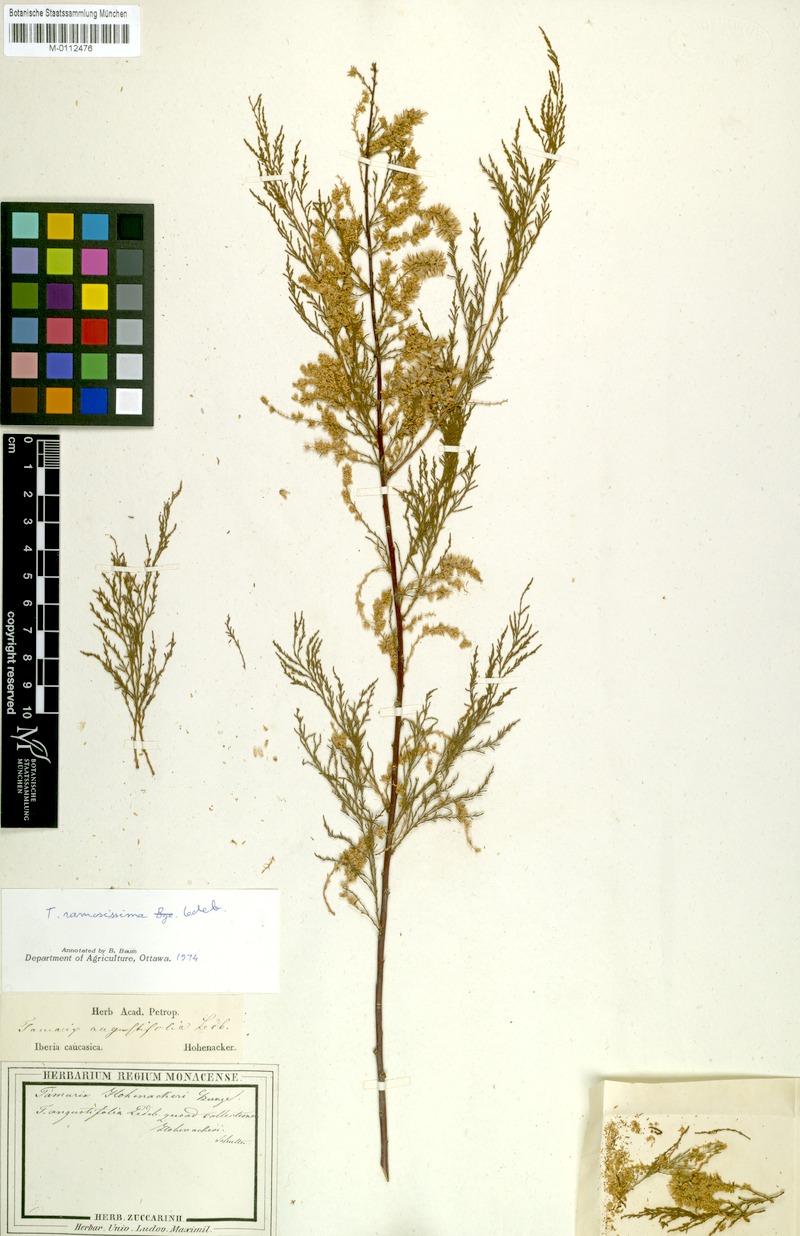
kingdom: Plantae
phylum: Tracheophyta
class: Magnoliopsida
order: Caryophyllales
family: Tamaricaceae
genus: Tamarix
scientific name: Tamarix hohenackeri
